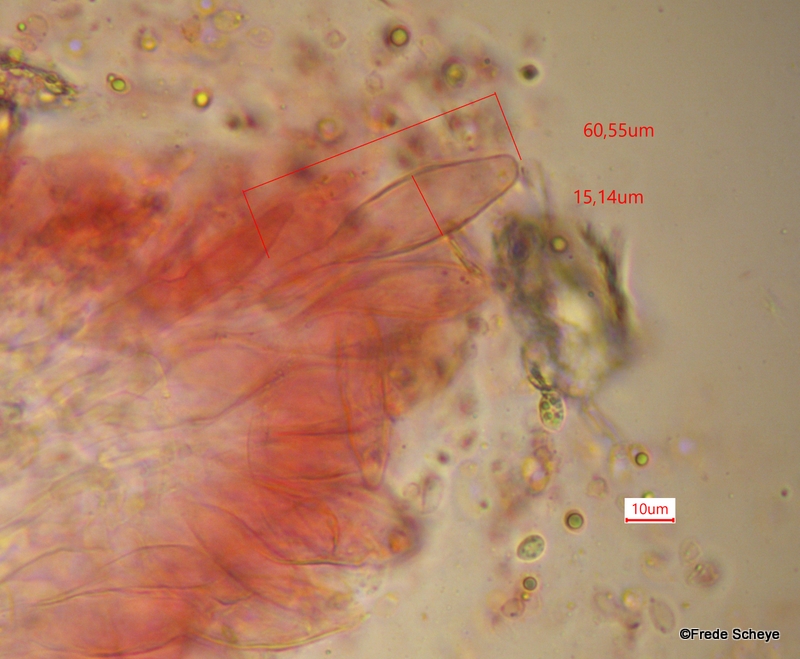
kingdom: Fungi
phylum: Basidiomycota
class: Agaricomycetes
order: Agaricales
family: Mycenaceae
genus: Mycena
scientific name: Mycena rosea
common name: rosa huesvamp
